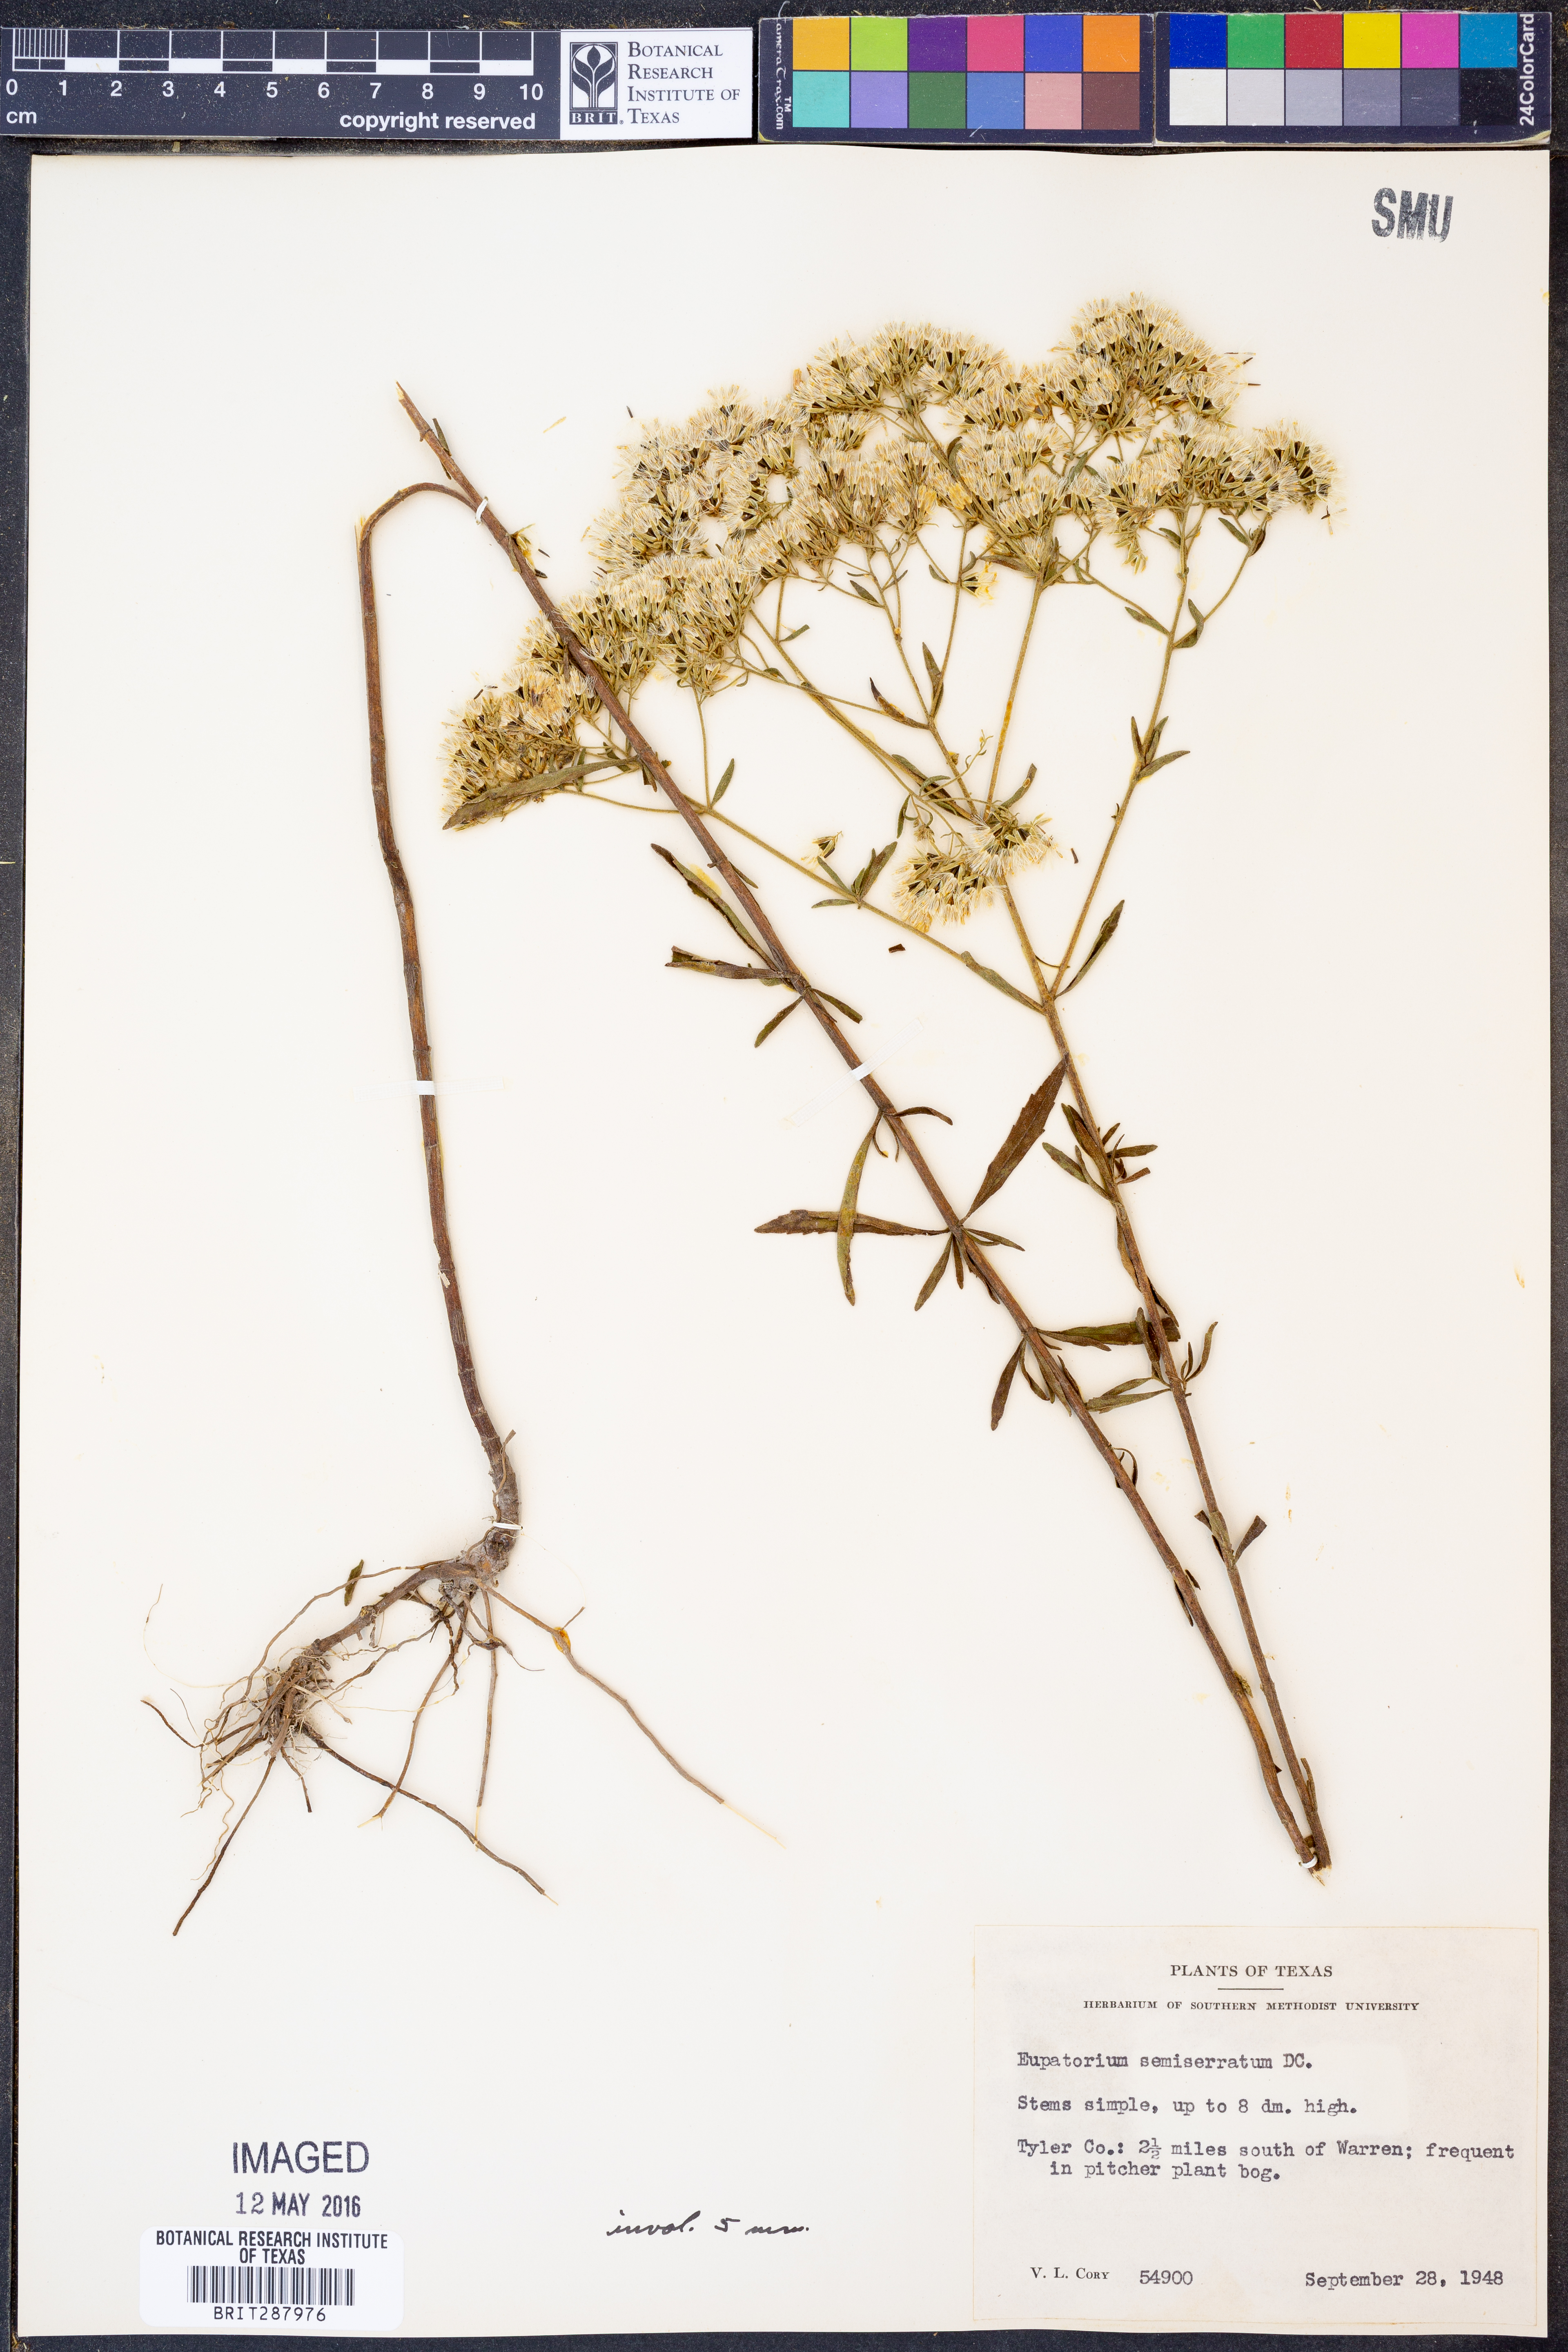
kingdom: Plantae
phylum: Tracheophyta
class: Magnoliopsida
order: Asterales
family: Asteraceae
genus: Eupatorium
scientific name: Eupatorium semiserratum
